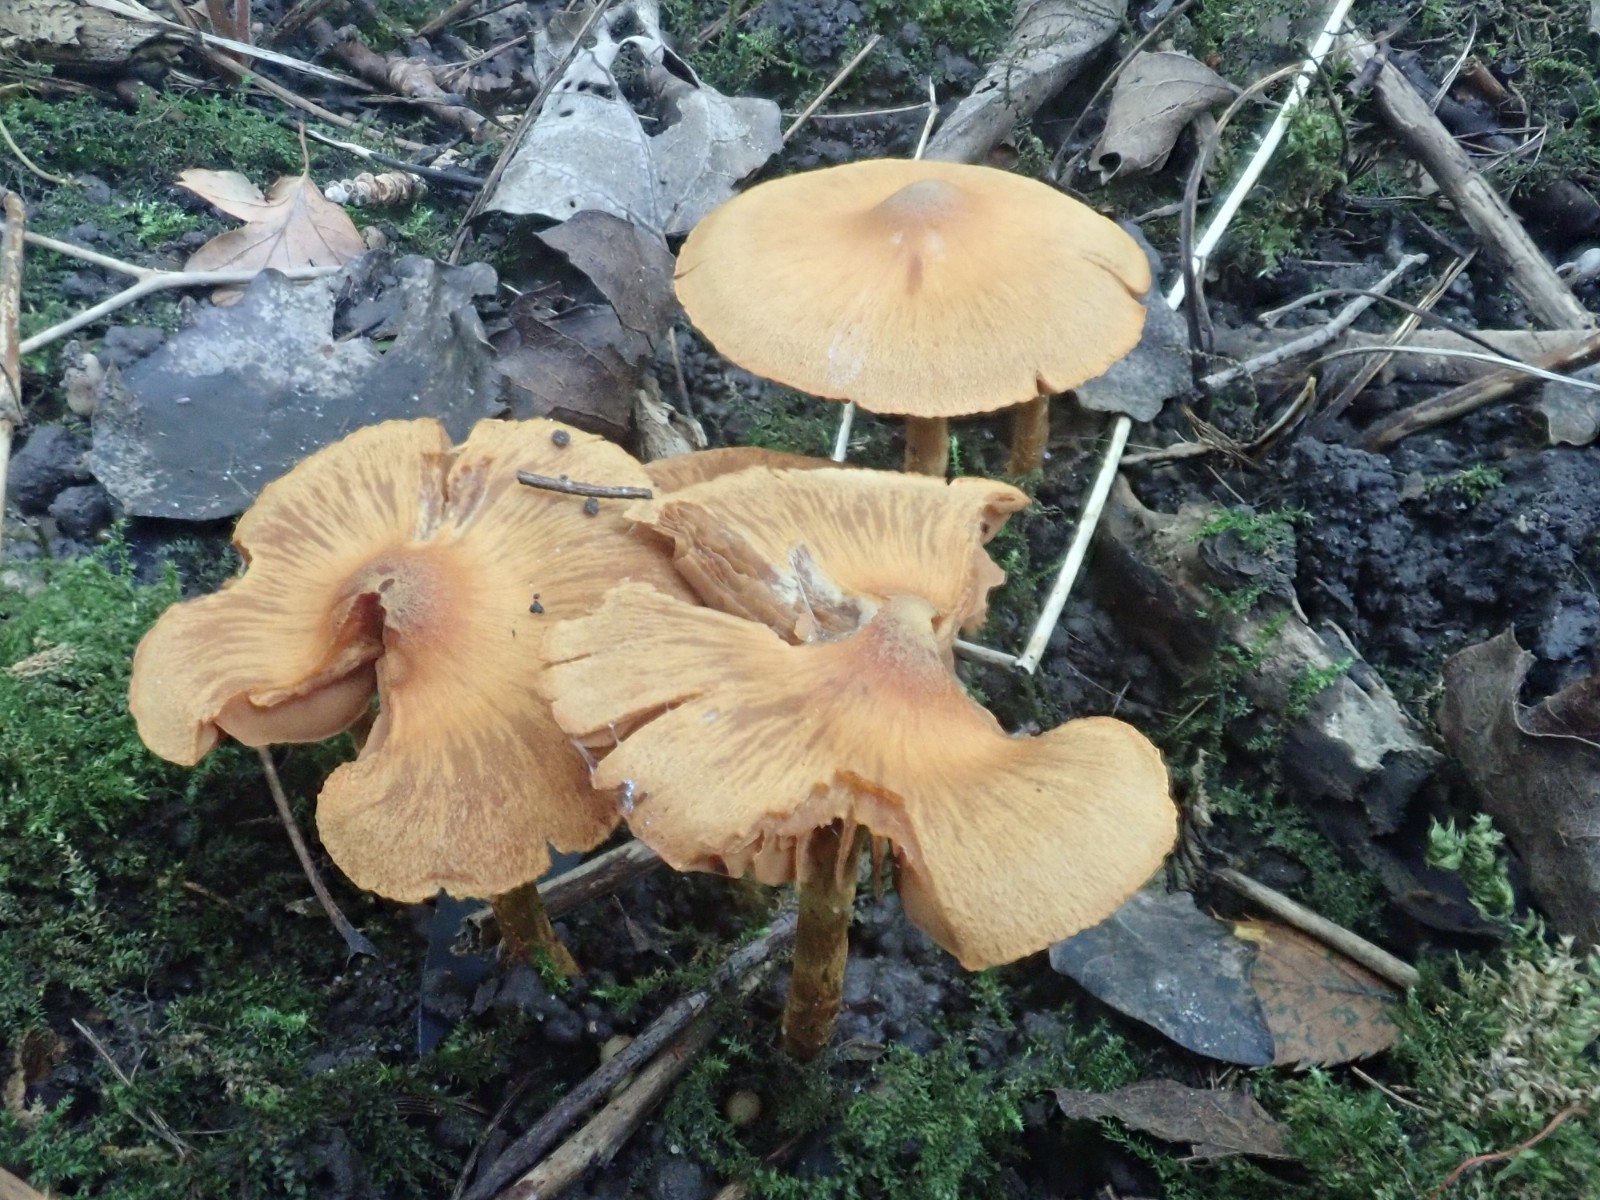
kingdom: Fungi
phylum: Basidiomycota
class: Agaricomycetes
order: Agaricales
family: Cortinariaceae
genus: Cortinarius
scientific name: Cortinarius
